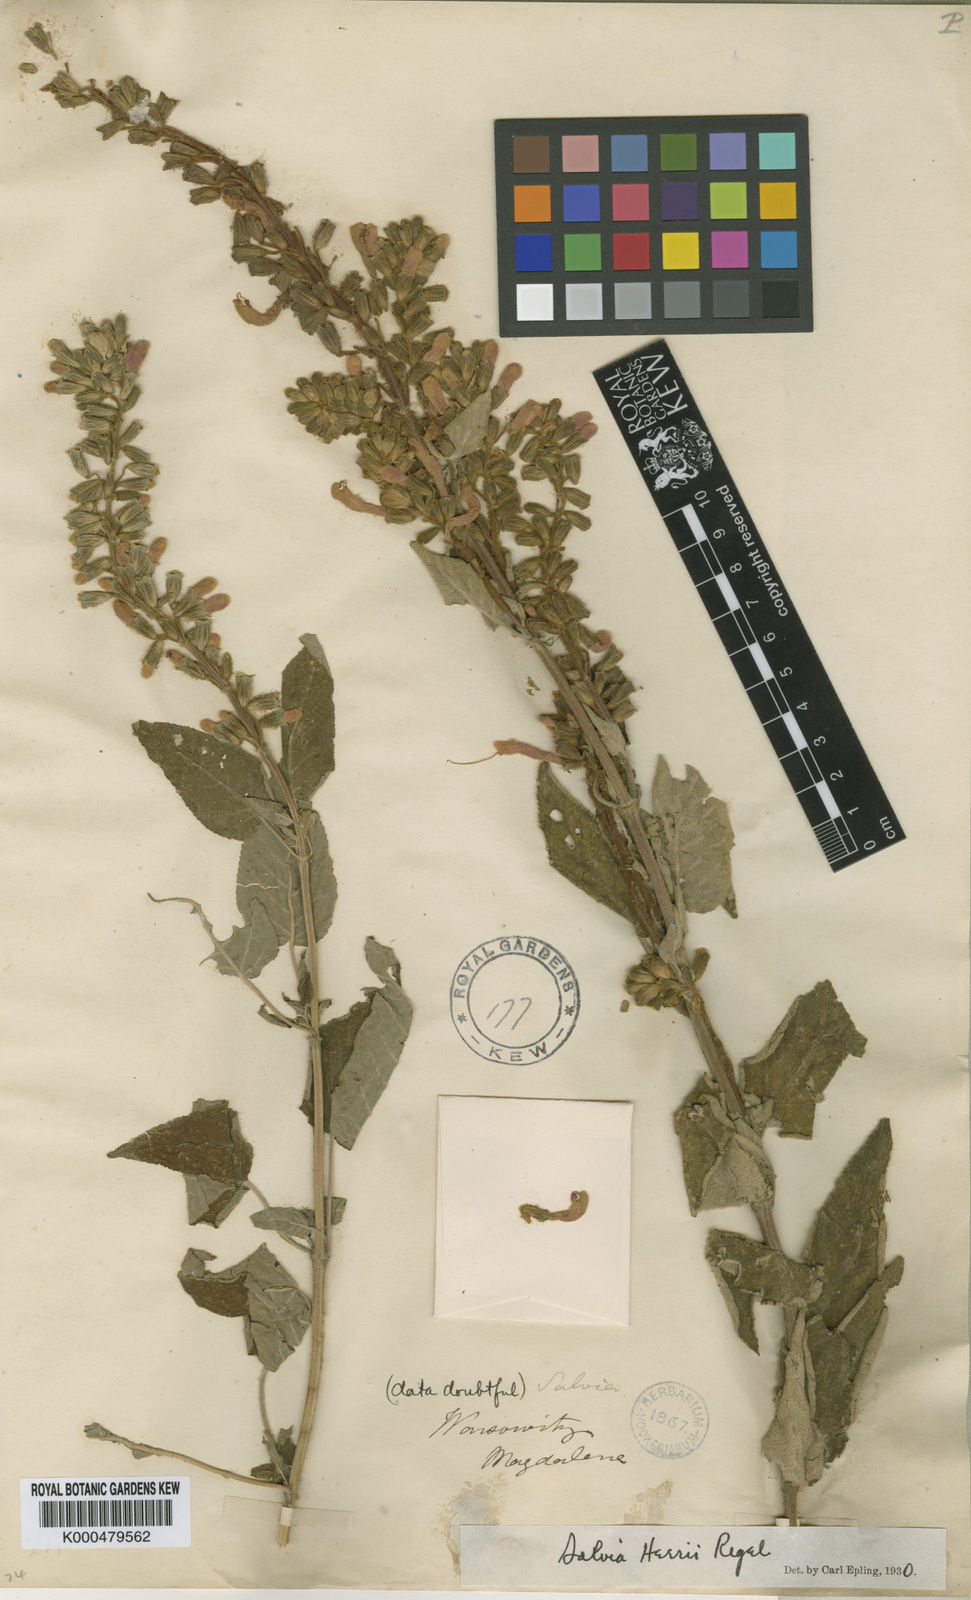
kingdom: Plantae
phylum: Tracheophyta
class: Magnoliopsida
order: Lamiales
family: Lamiaceae
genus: Salvia
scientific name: Salvia heerii
